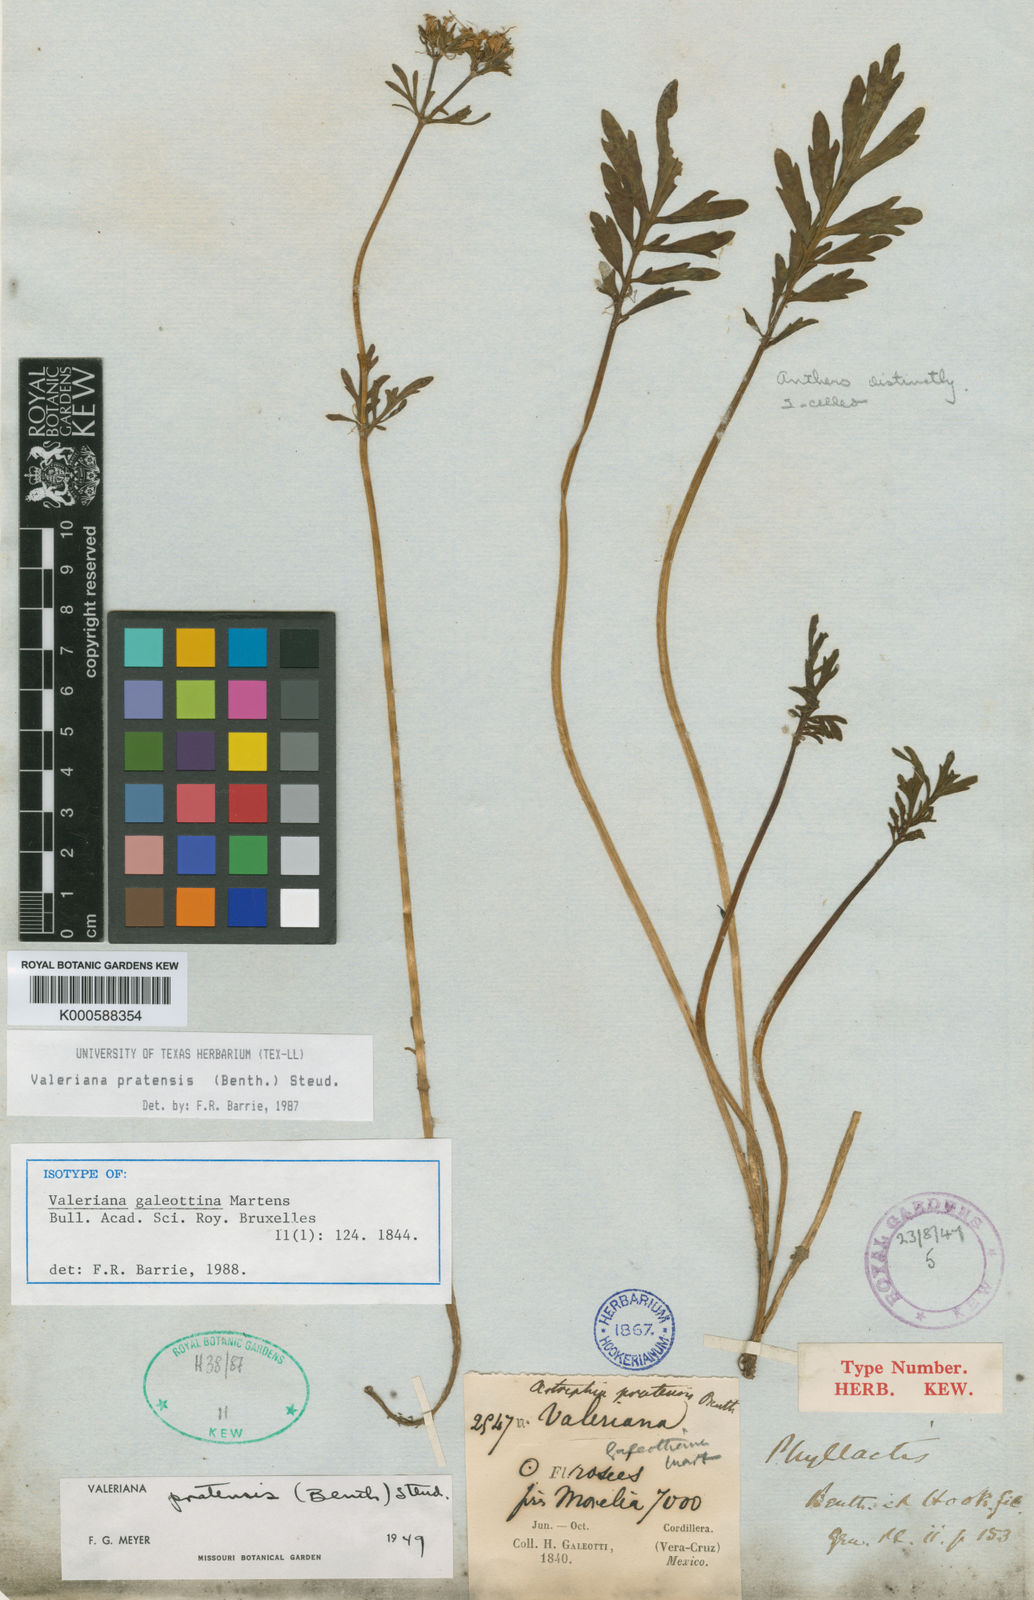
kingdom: Plantae
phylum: Tracheophyta
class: Magnoliopsida
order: Dipsacales
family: Caprifoliaceae
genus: Valeriana
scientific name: Valeriana galeottiana
